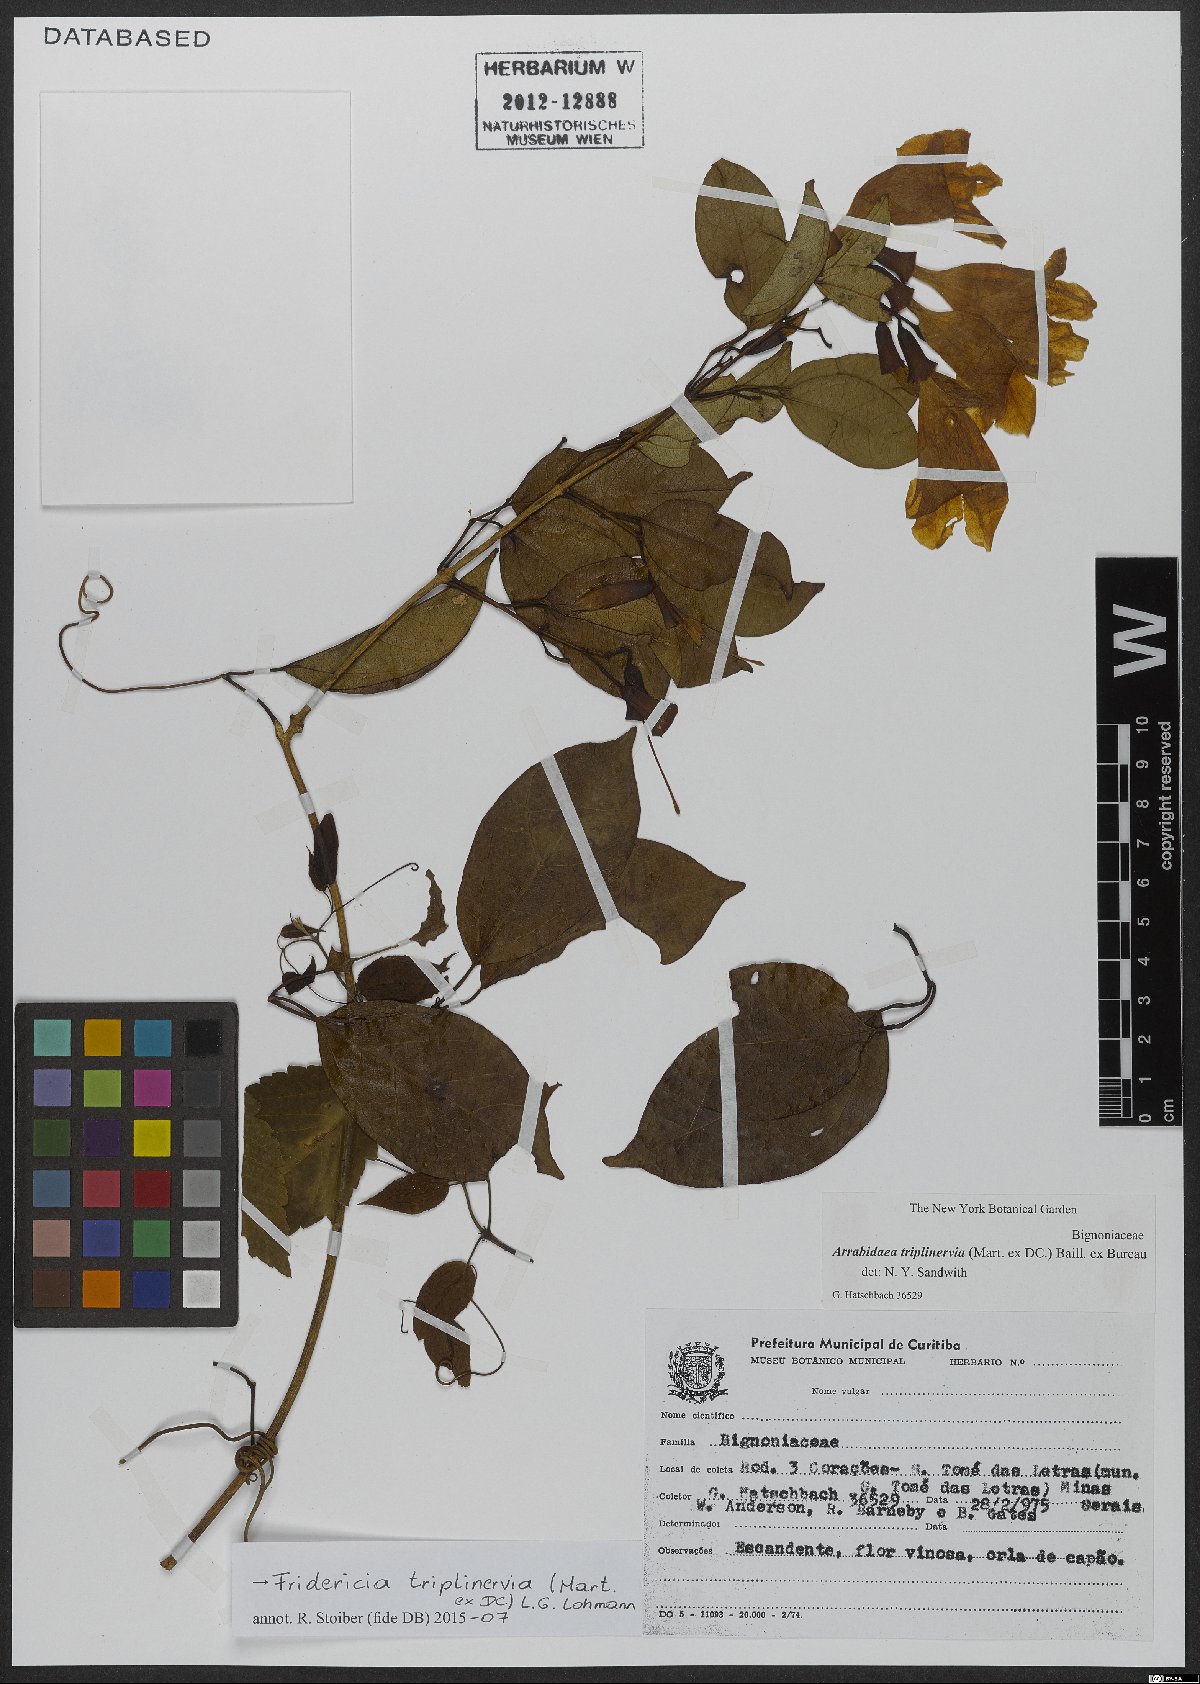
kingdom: Plantae
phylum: Tracheophyta
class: Magnoliopsida
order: Lamiales
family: Bignoniaceae
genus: Fridericia
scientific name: Fridericia triplinervia
